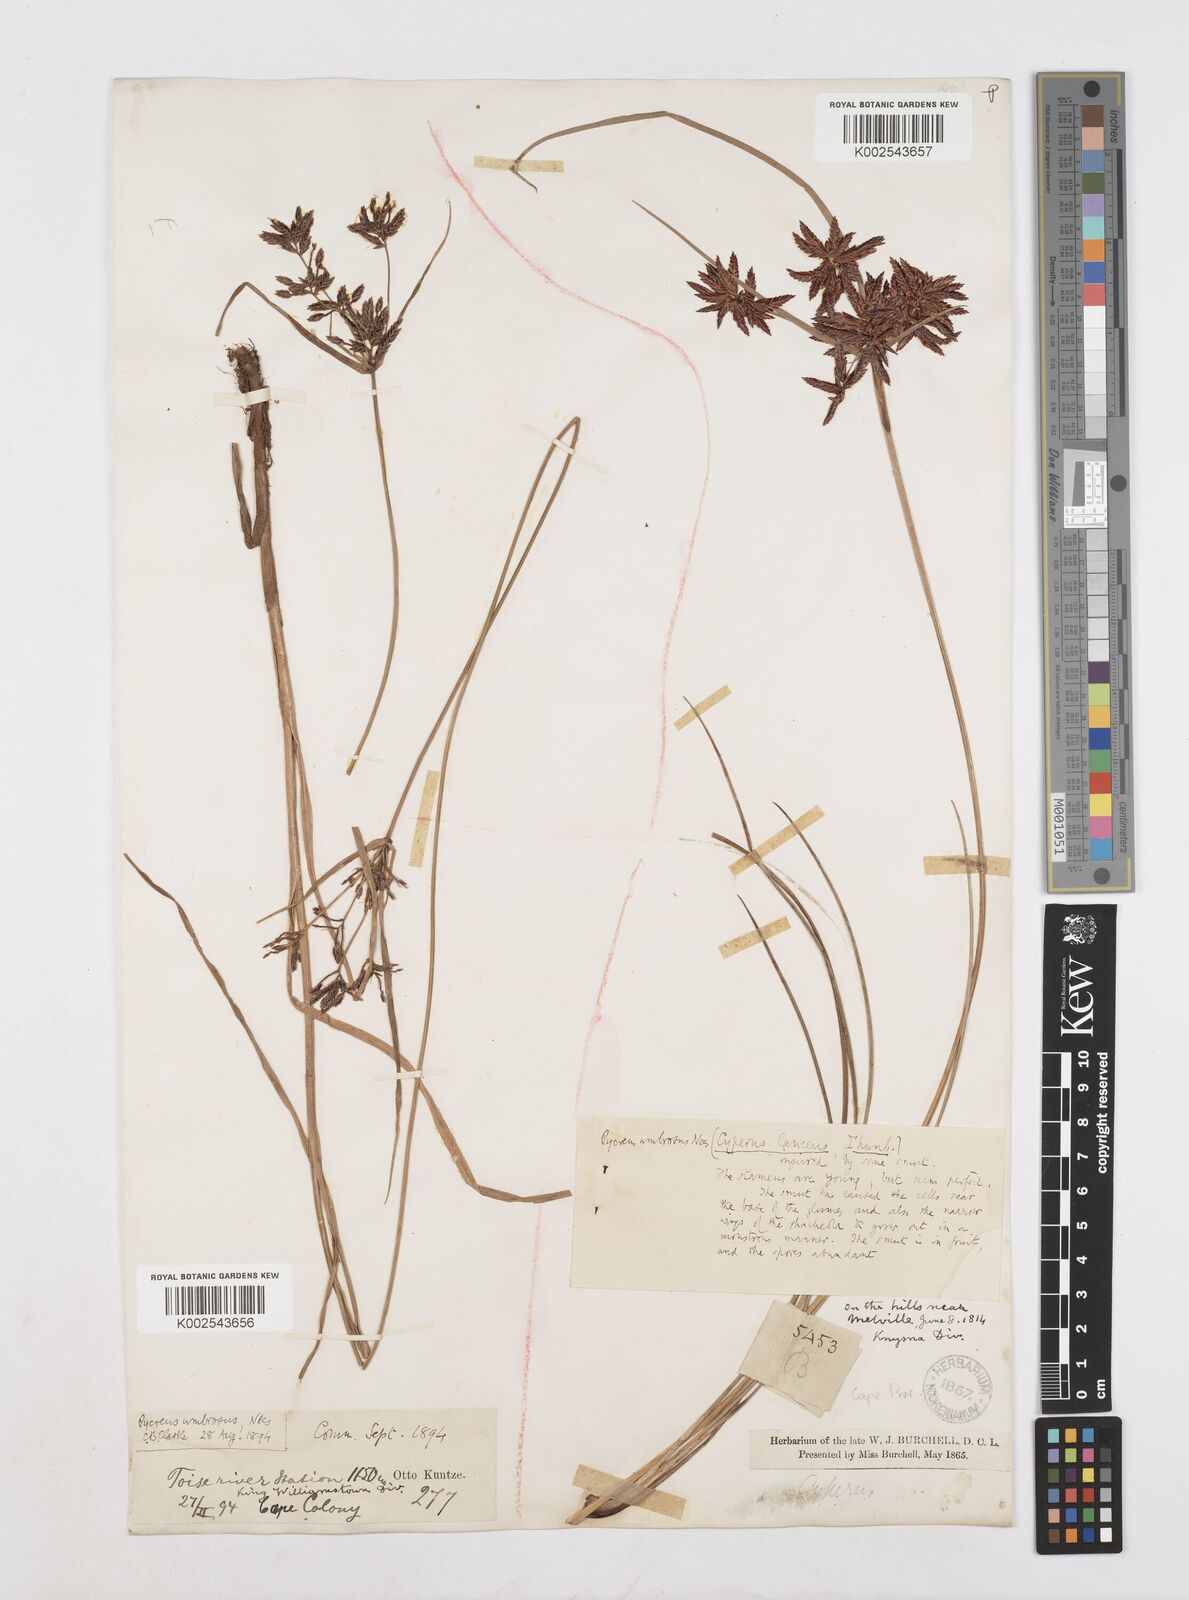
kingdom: Plantae
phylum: Tracheophyta
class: Liliopsida
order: Poales
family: Cyperaceae
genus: Cyperus
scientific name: Cyperus nitidus
